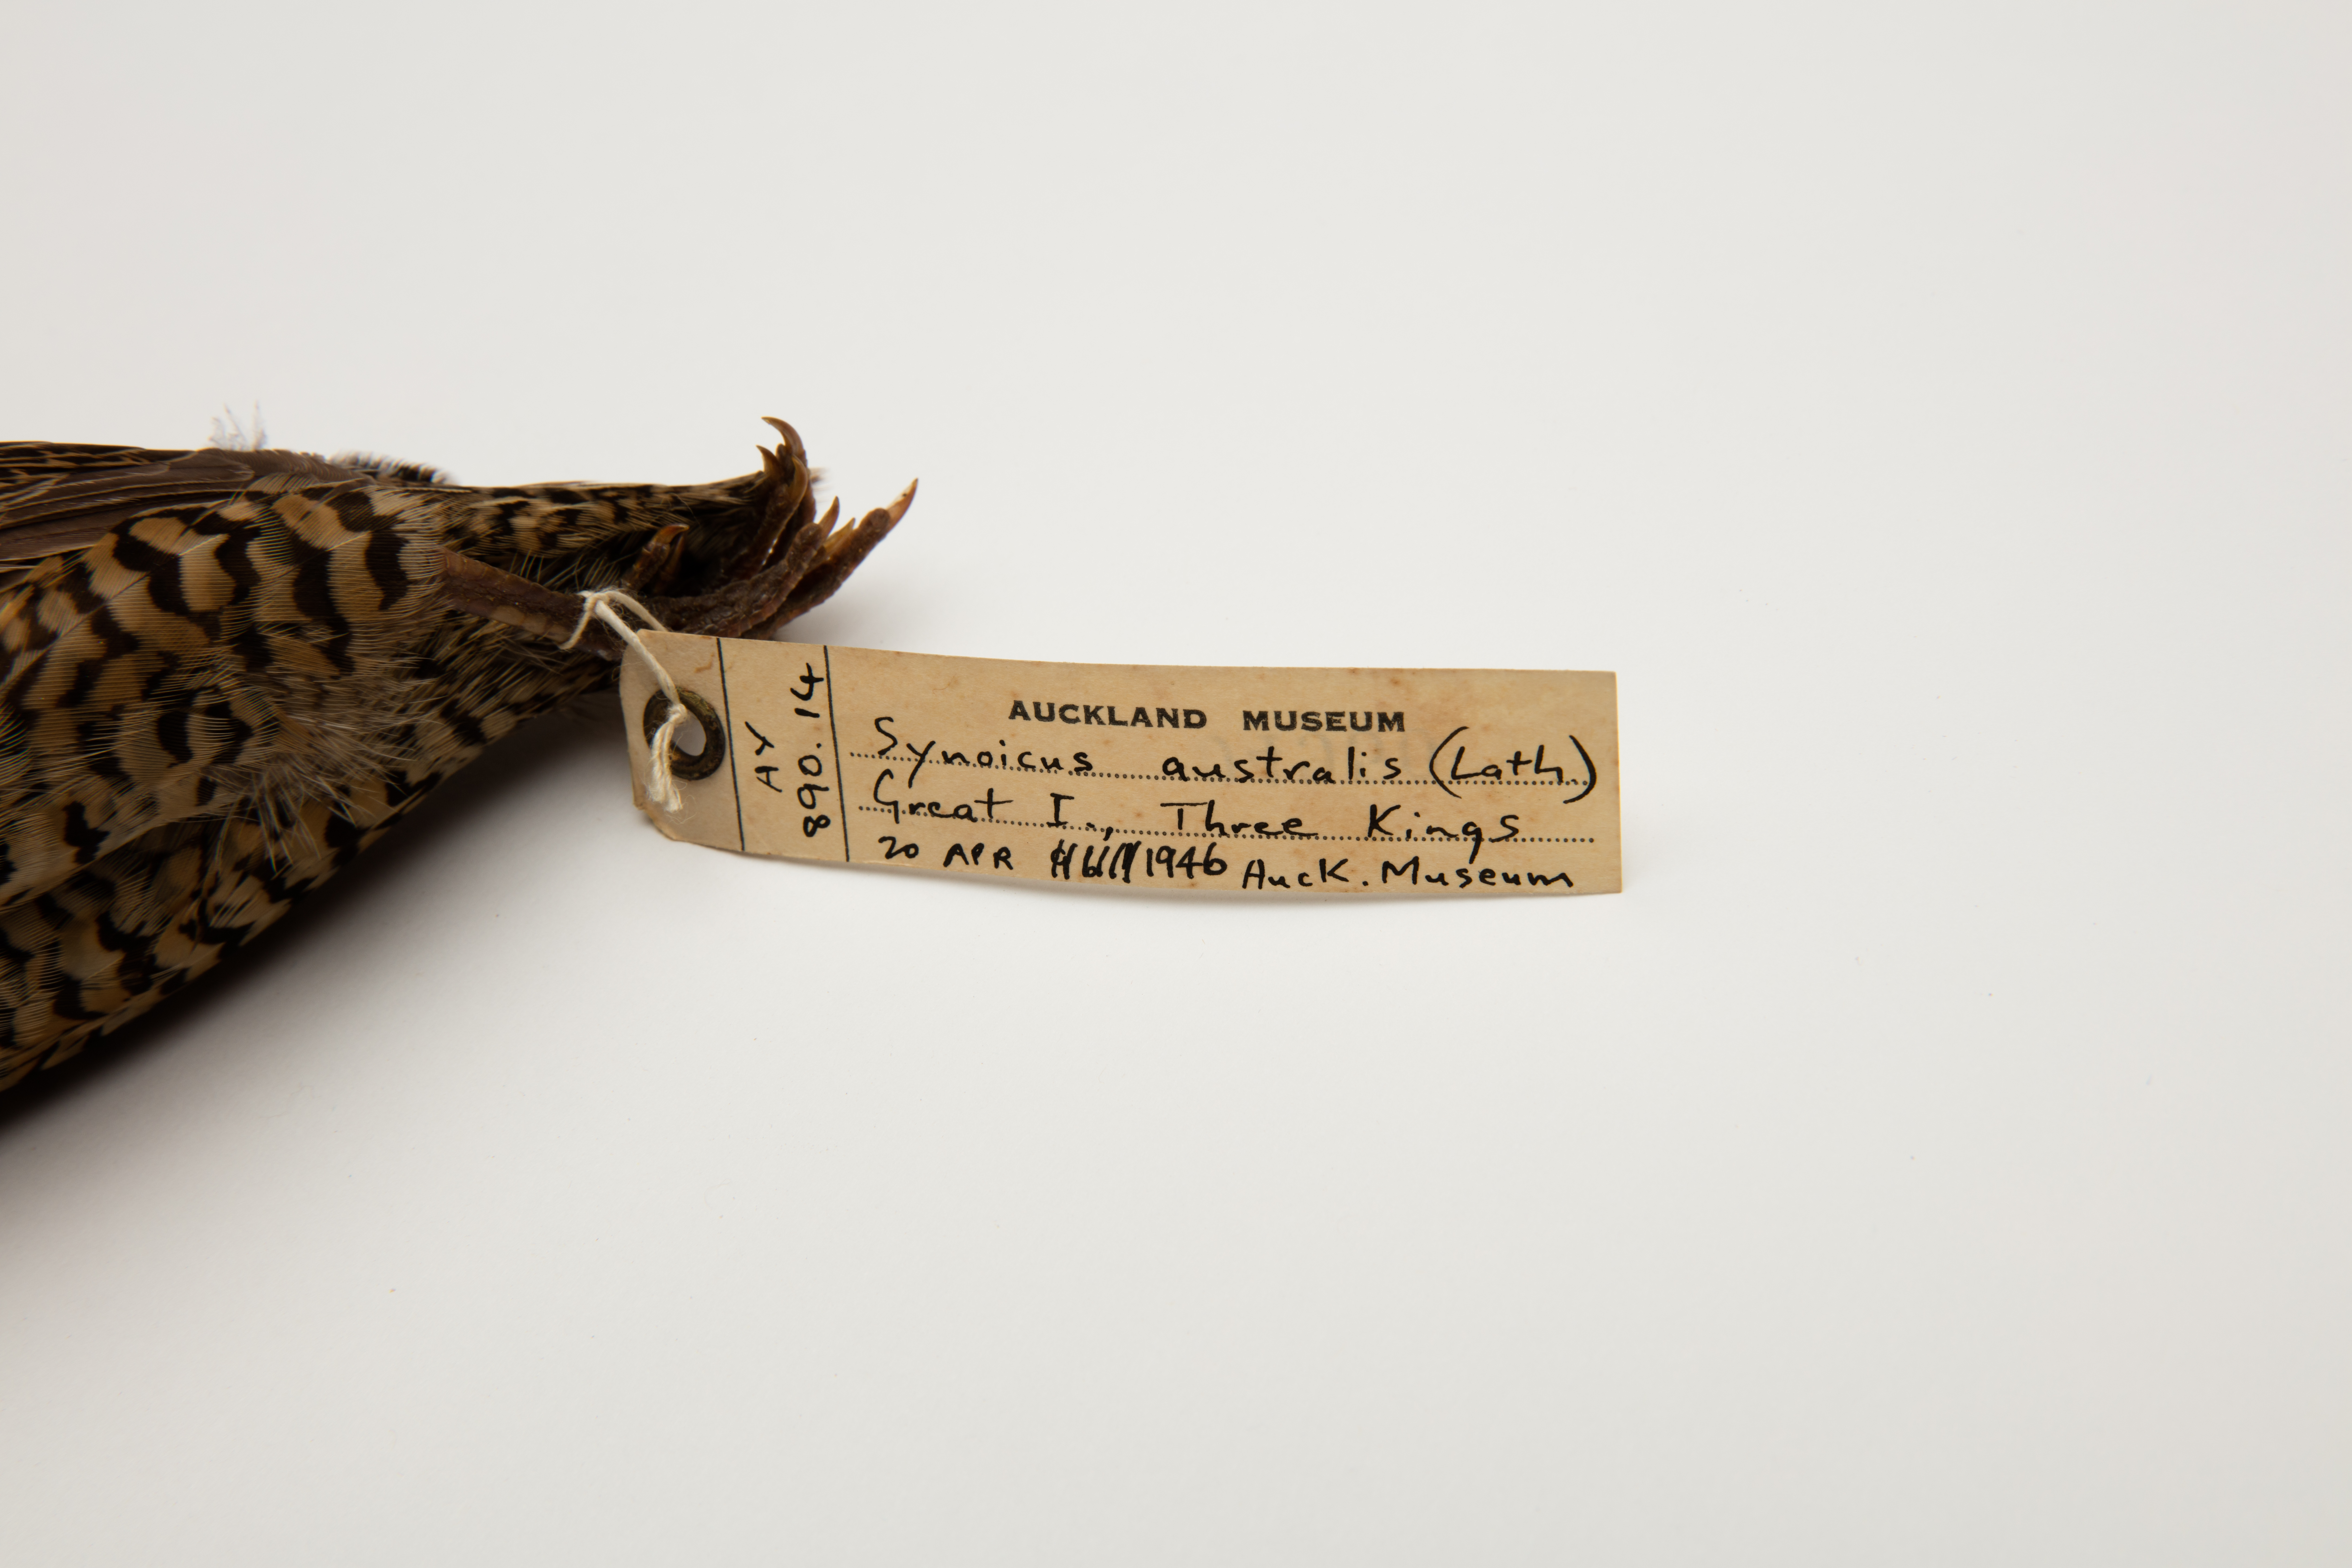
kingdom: Animalia
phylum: Chordata
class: Aves
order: Galliformes
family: Phasianidae
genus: Synoicus
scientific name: Synoicus ypsilophorus
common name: Brown quail
